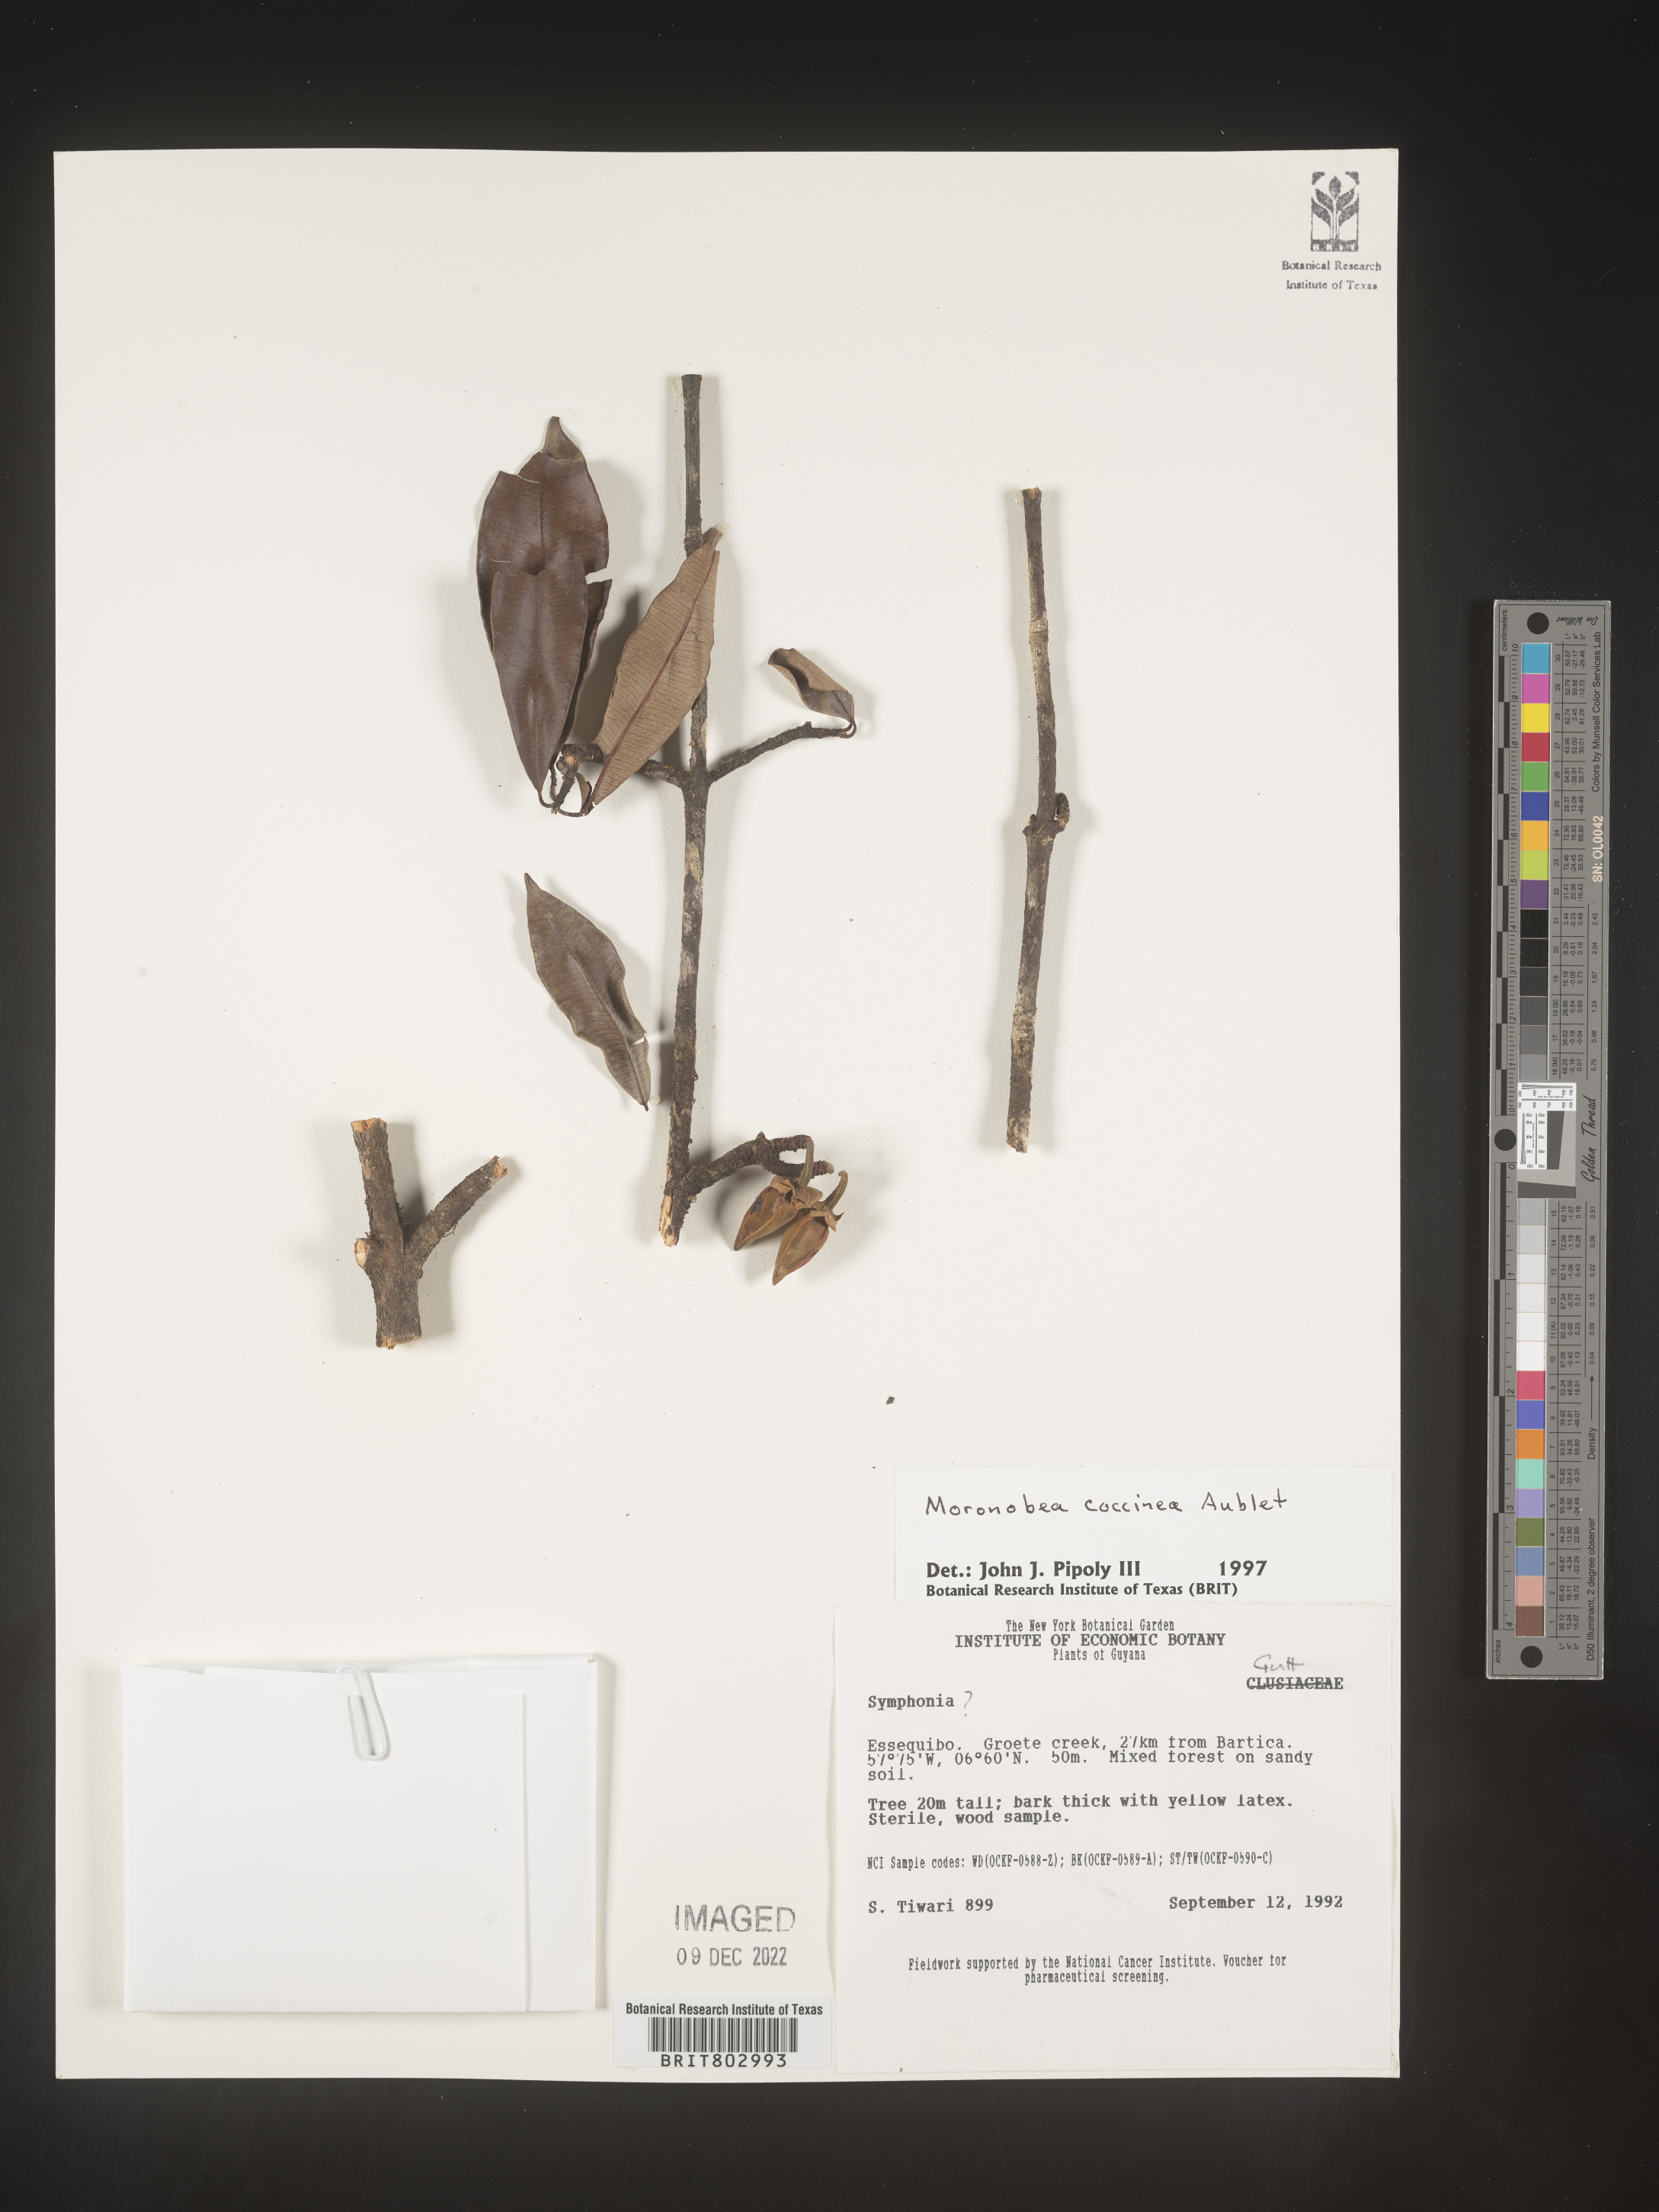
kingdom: Plantae
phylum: Tracheophyta
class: Magnoliopsida
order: Malpighiales
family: Clusiaceae
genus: Moronobea
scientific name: Moronobea
